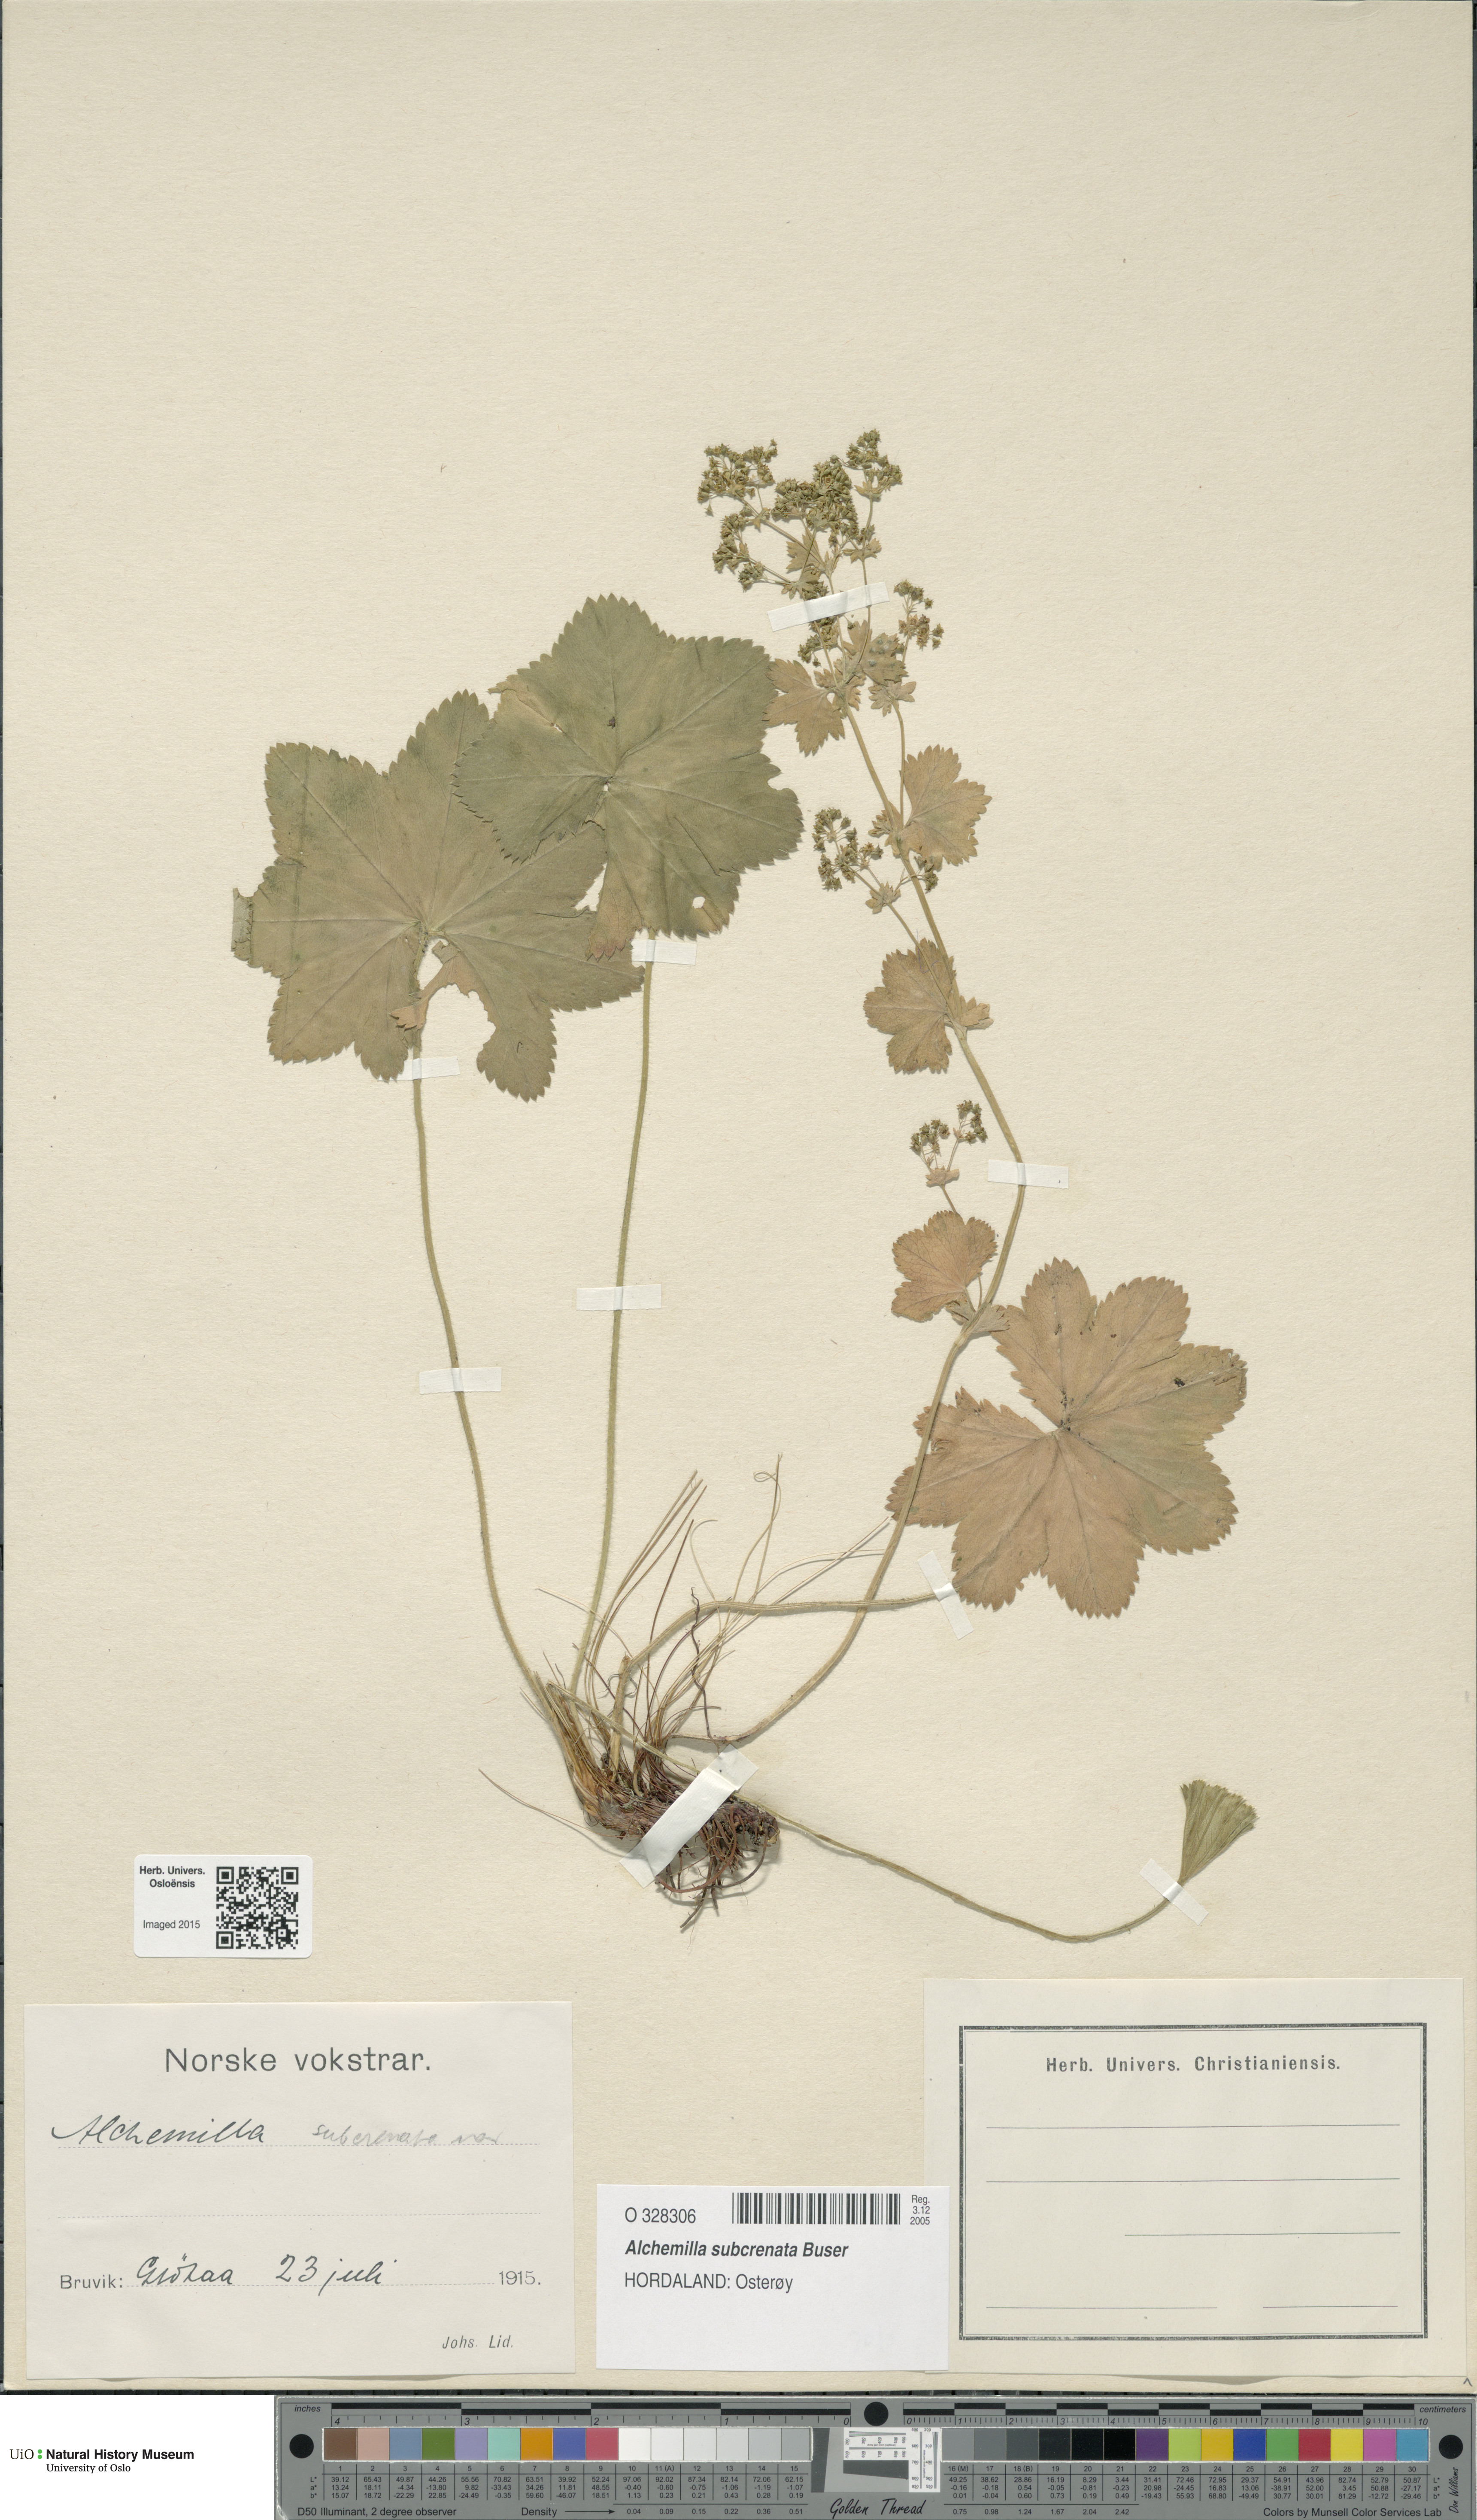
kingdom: Plantae
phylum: Tracheophyta
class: Magnoliopsida
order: Rosales
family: Rosaceae
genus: Alchemilla
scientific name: Alchemilla subcrenata
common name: Broadtooth lady's mantle
